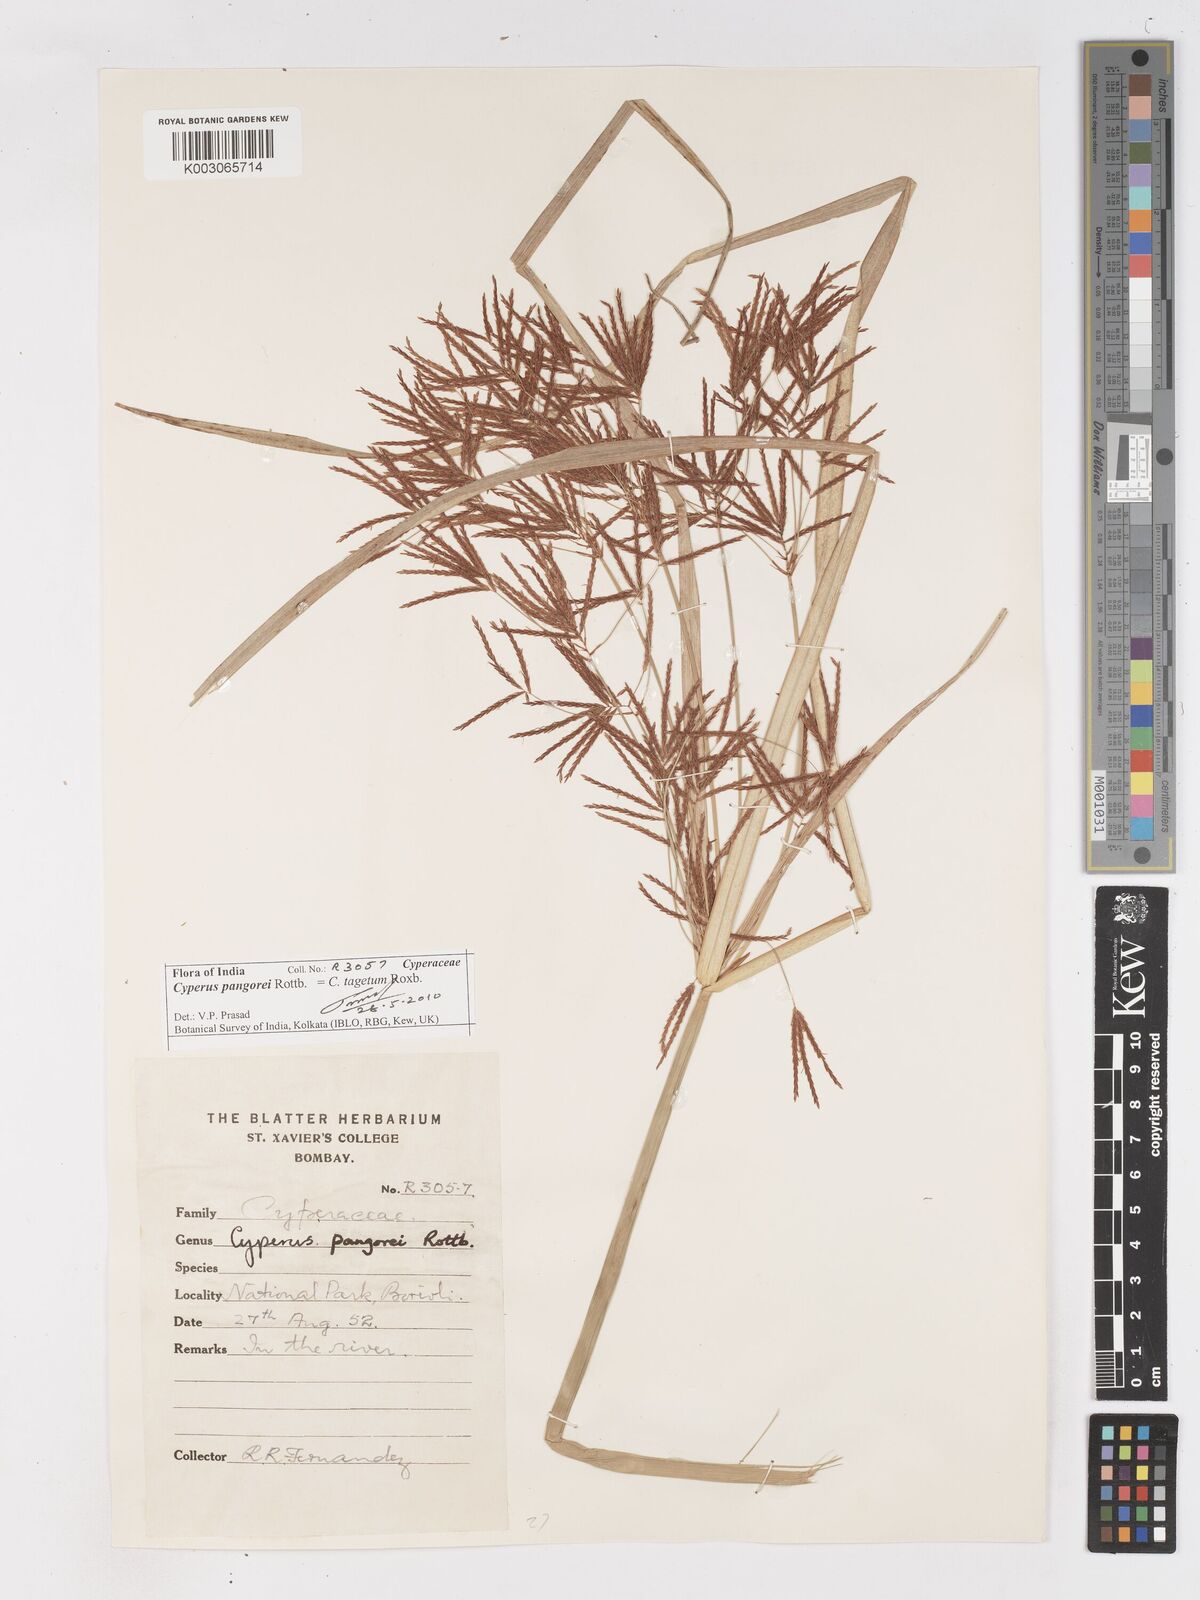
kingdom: Plantae
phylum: Tracheophyta
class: Liliopsida
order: Poales
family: Cyperaceae
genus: Cyperus
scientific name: Cyperus pangorei
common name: Mat sedge
